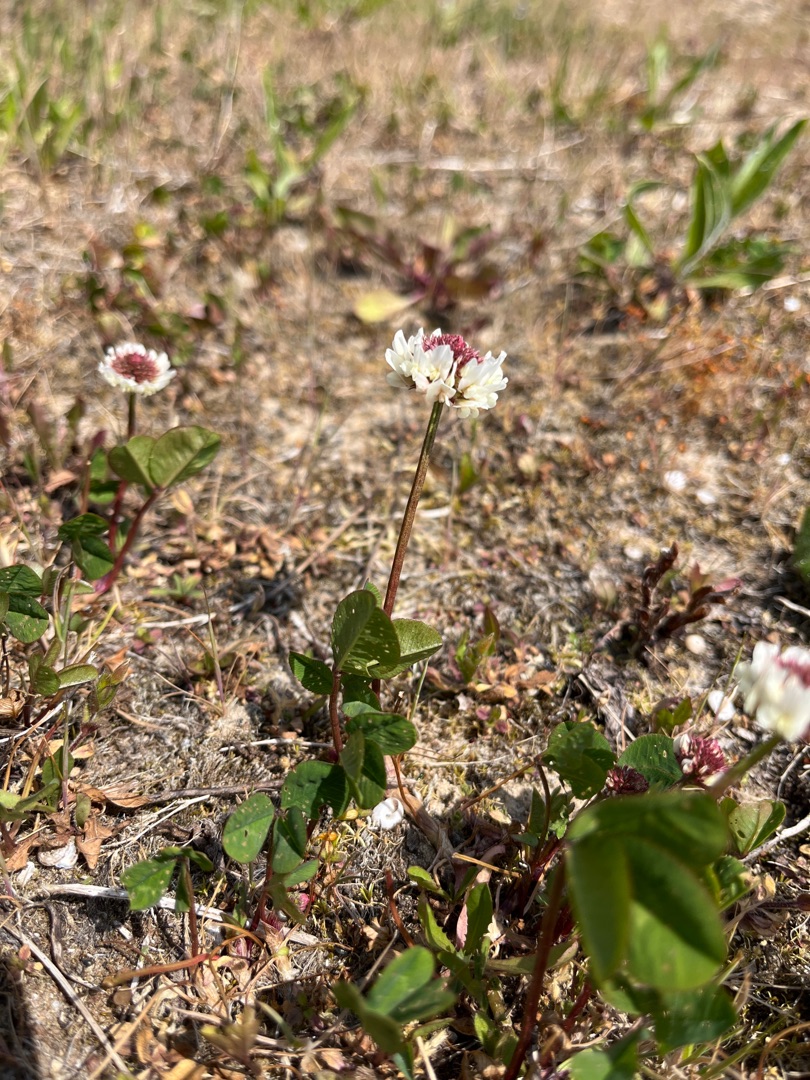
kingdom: Plantae
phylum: Tracheophyta
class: Magnoliopsida
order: Fabales
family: Fabaceae
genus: Trifolium
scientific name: Trifolium repens
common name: Hvid-kløver
